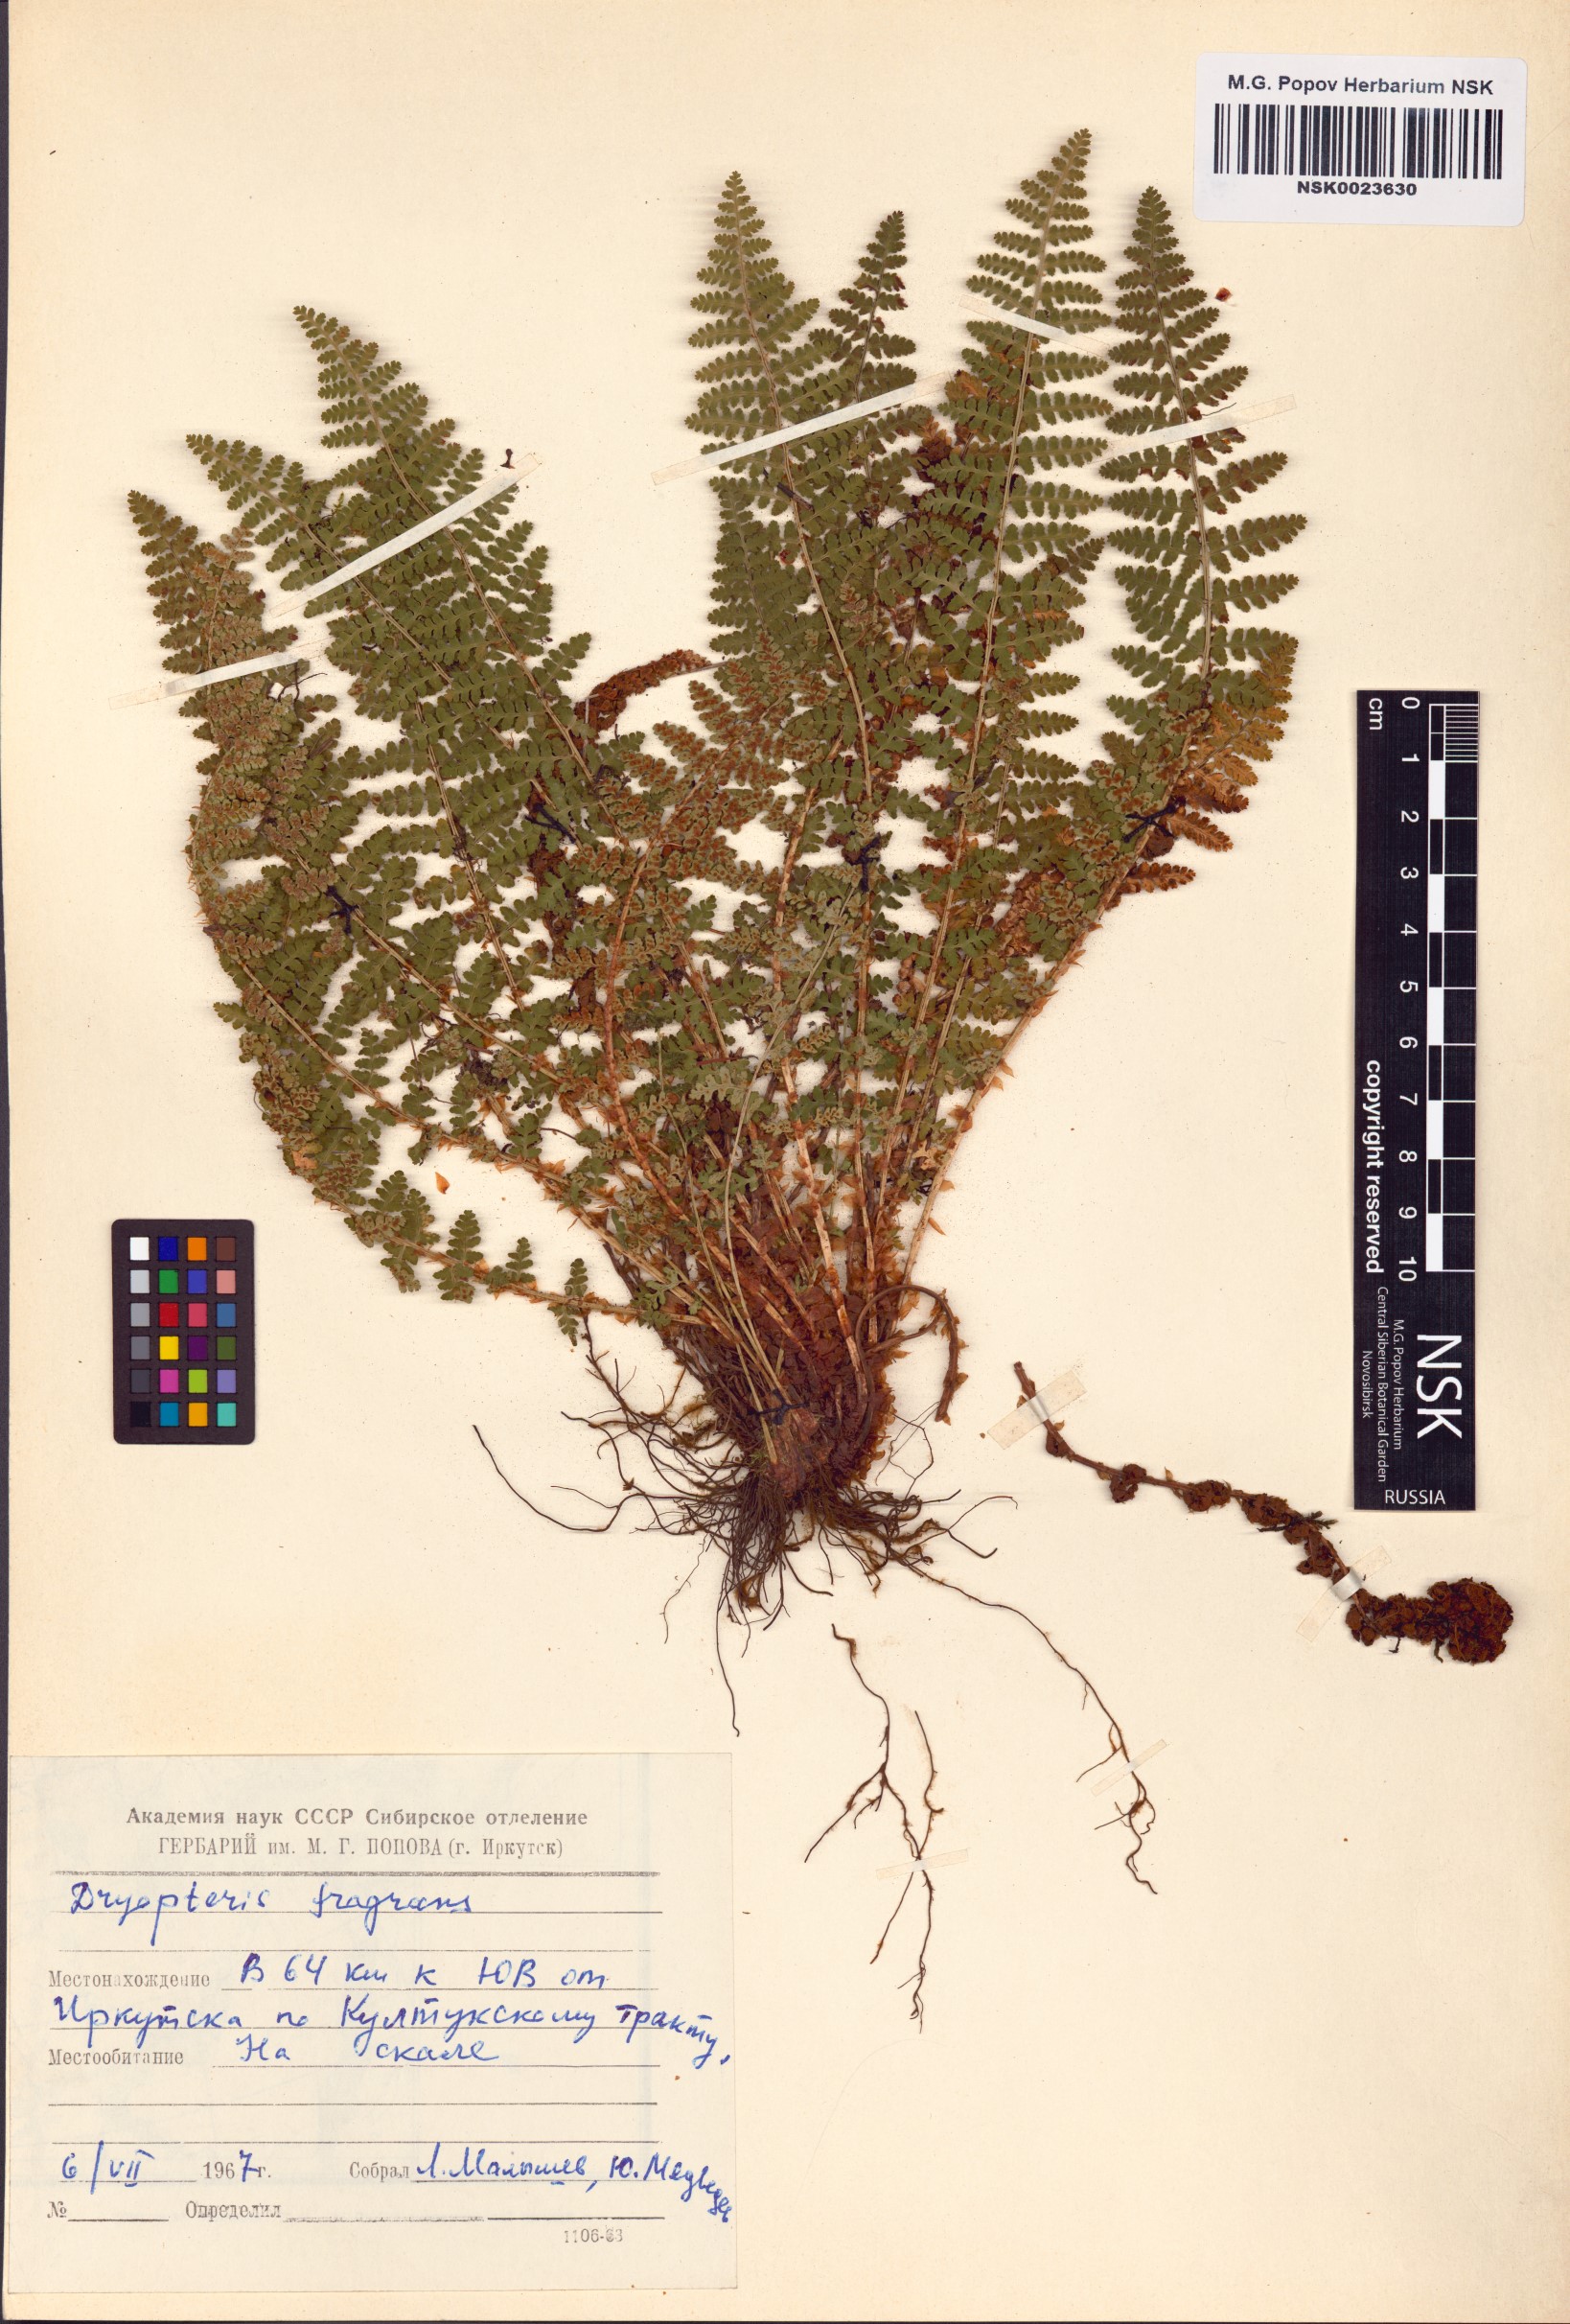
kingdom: Plantae
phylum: Tracheophyta
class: Polypodiopsida
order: Polypodiales
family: Dryopteridaceae
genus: Dryopteris
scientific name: Dryopteris fragrans
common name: Fragrant wood fern
